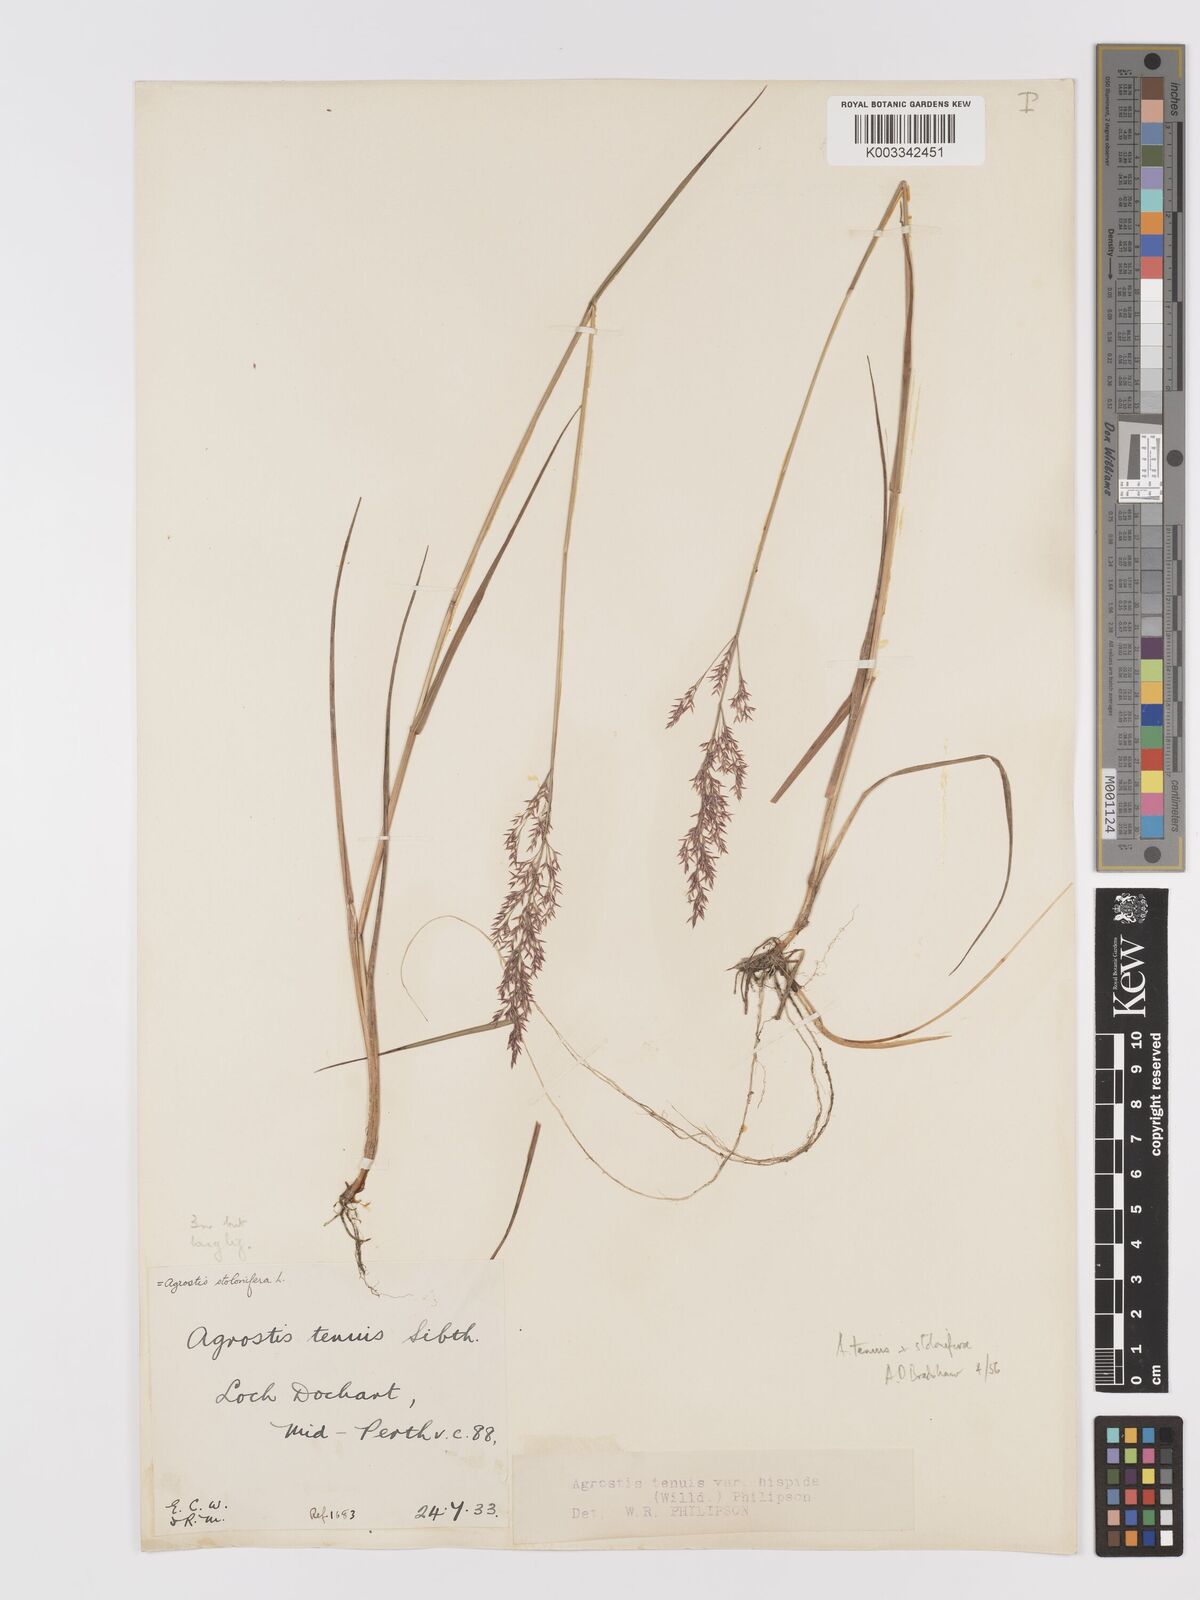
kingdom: Plantae
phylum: Tracheophyta
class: Liliopsida
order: Poales
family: Poaceae
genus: Agrostis
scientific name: Agrostis capillaris
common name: Colonial bentgrass
